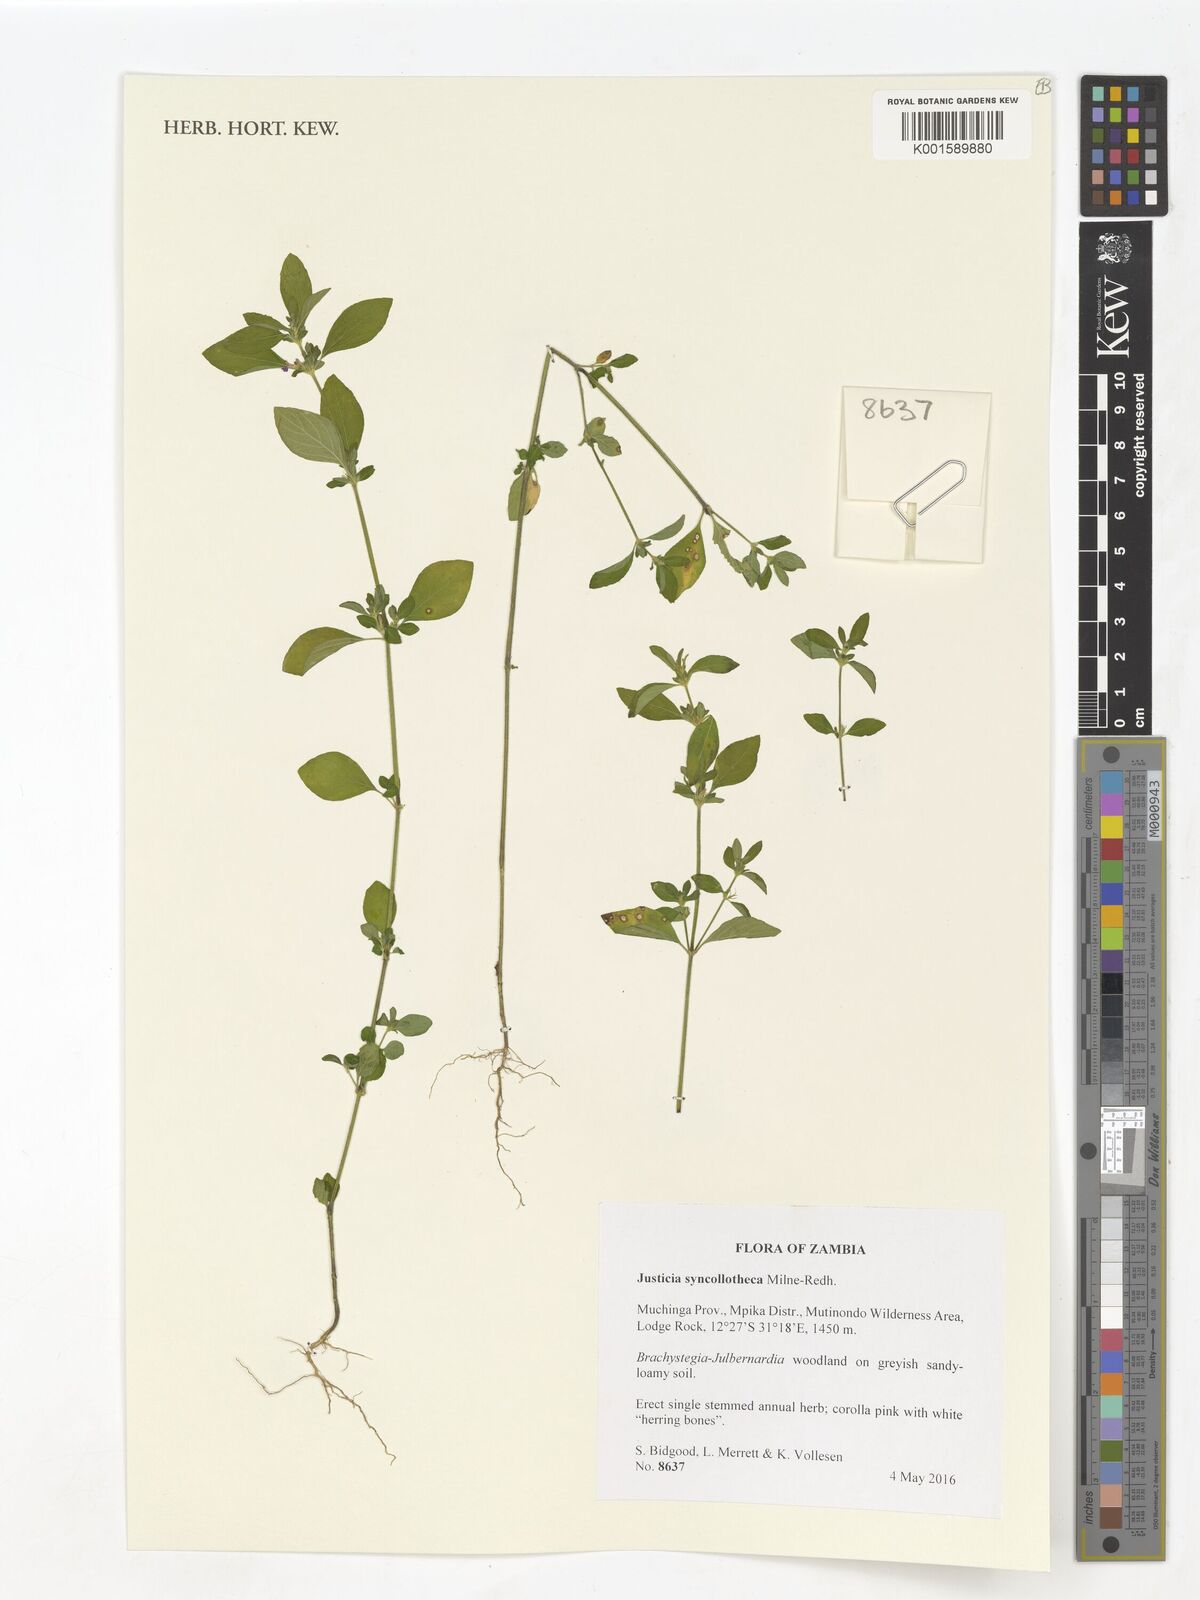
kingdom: Plantae
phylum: Tracheophyta
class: Magnoliopsida
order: Lamiales
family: Acanthaceae
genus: Justicia
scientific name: Justicia syncollotheca
